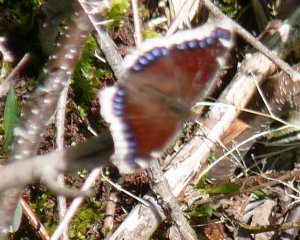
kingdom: Animalia
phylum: Arthropoda
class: Insecta
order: Lepidoptera
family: Nymphalidae
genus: Nymphalis
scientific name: Nymphalis antiopa
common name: Mourning Cloak
